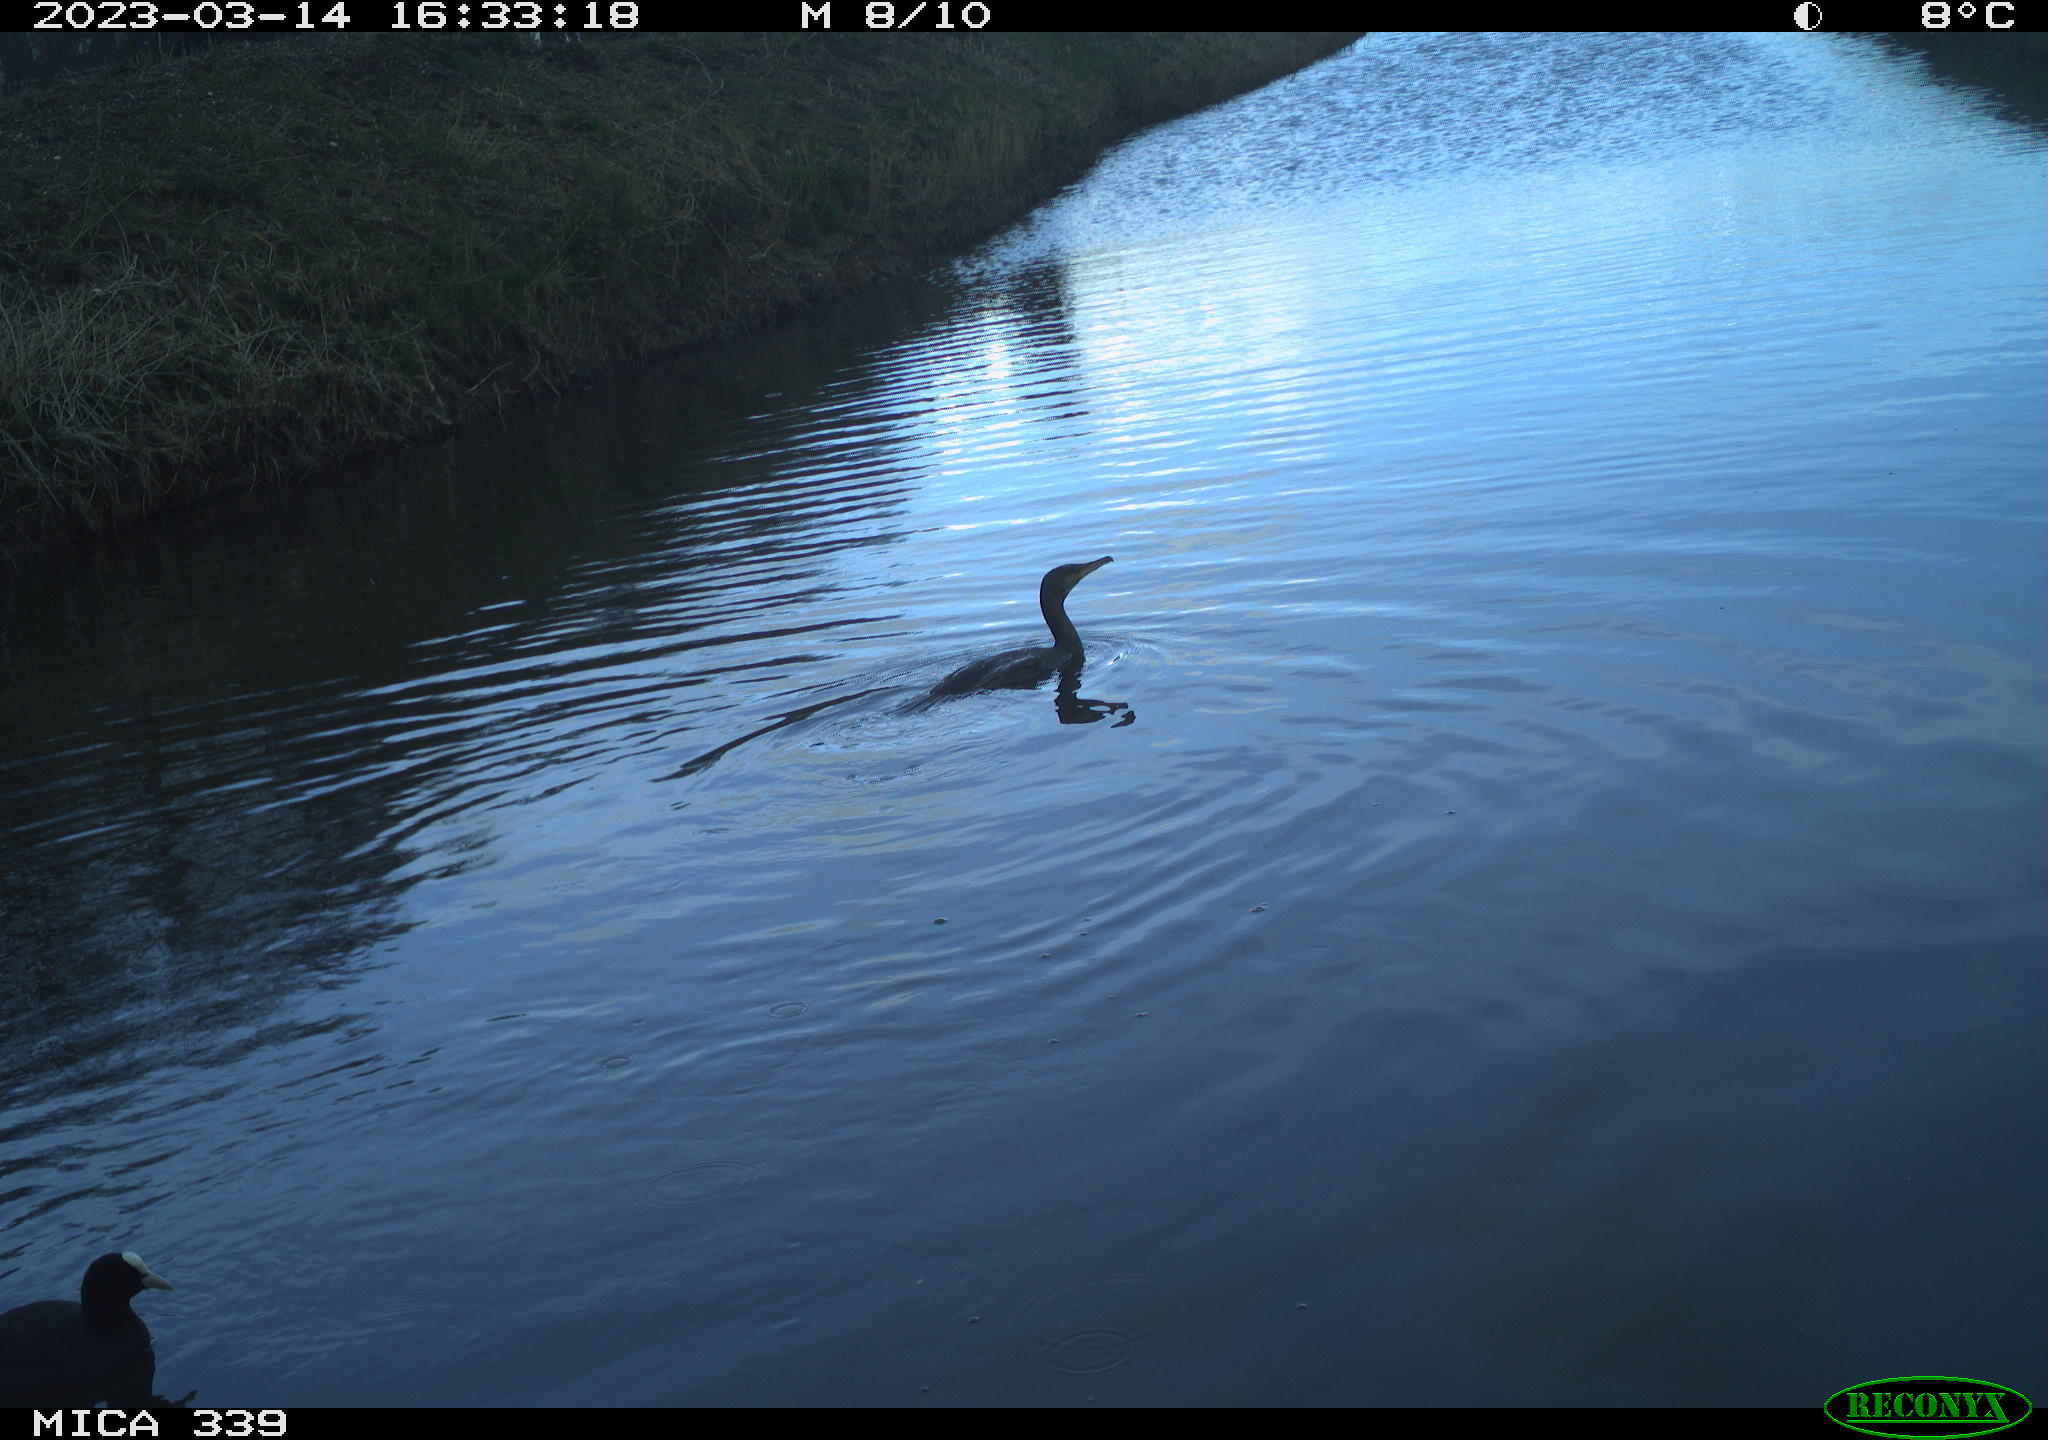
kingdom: Animalia
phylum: Chordata
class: Aves
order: Gruiformes
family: Rallidae
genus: Fulica
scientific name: Fulica atra
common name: Eurasian coot
